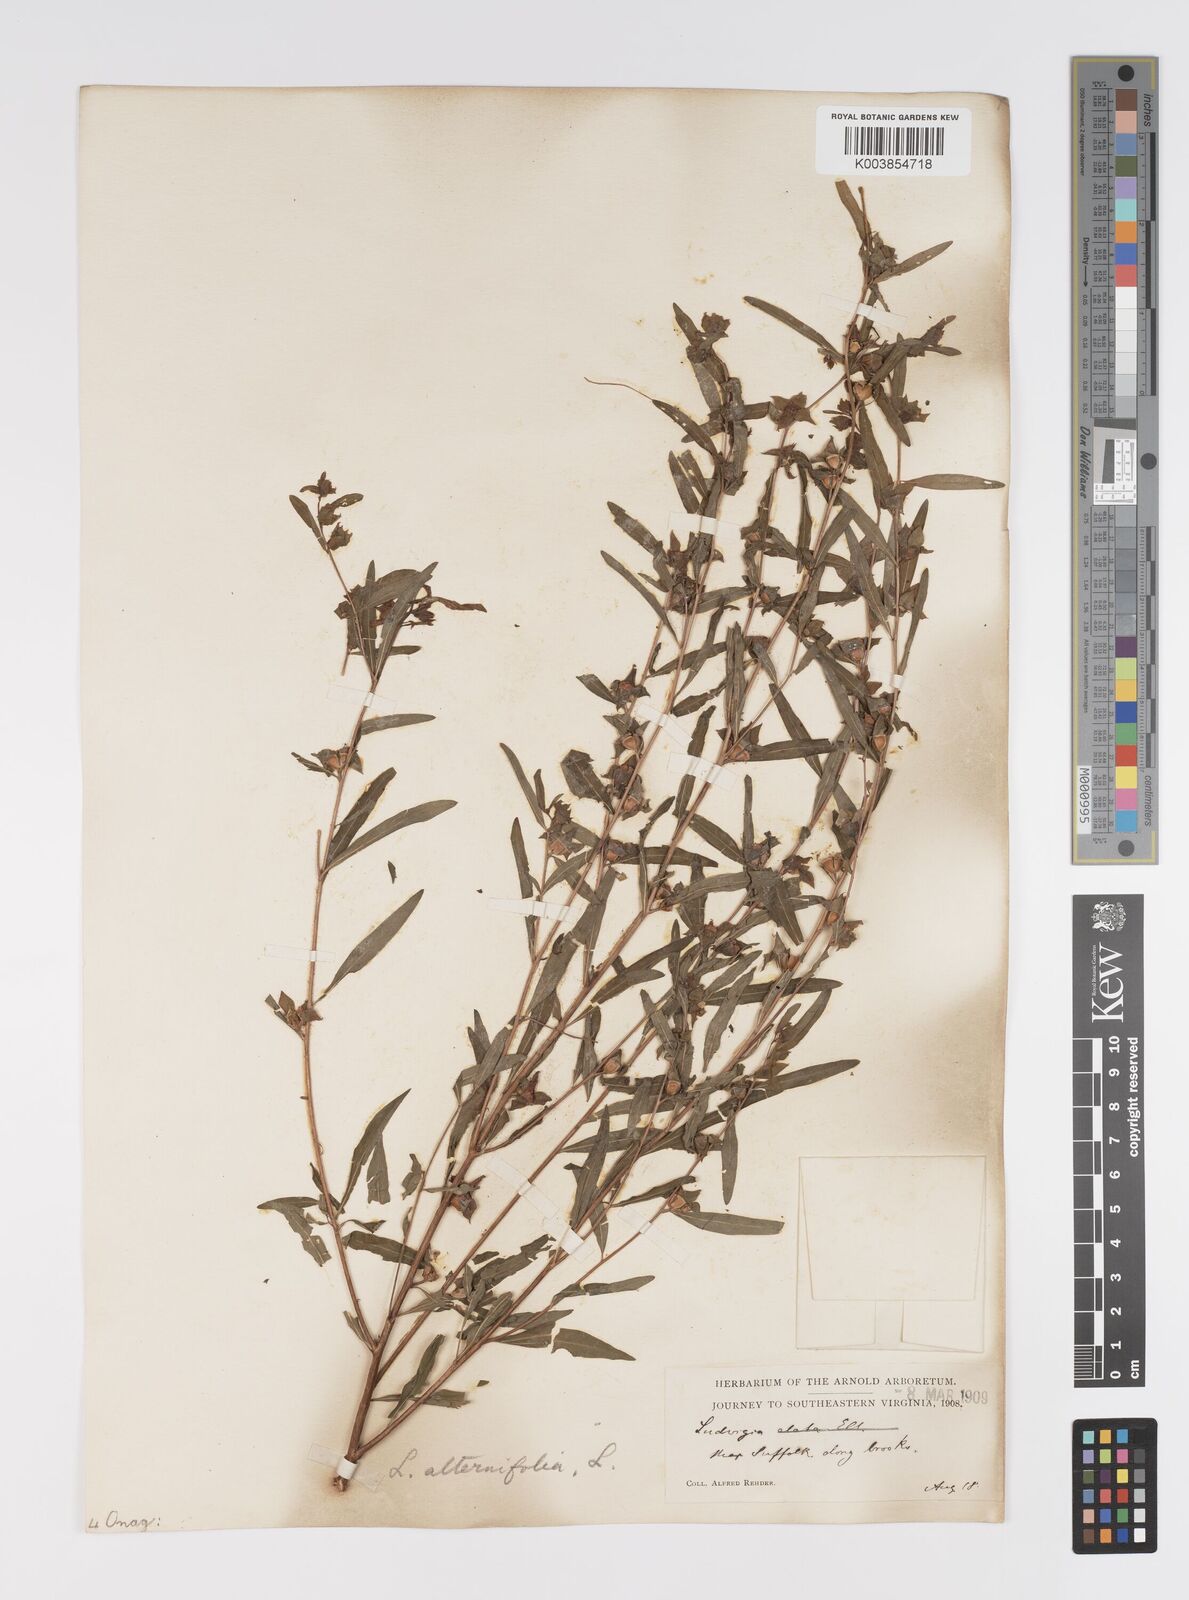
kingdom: Plantae
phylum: Tracheophyta
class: Magnoliopsida
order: Myrtales
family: Onagraceae
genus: Ludwigia
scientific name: Ludwigia alternifolia
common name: Rattlebox
